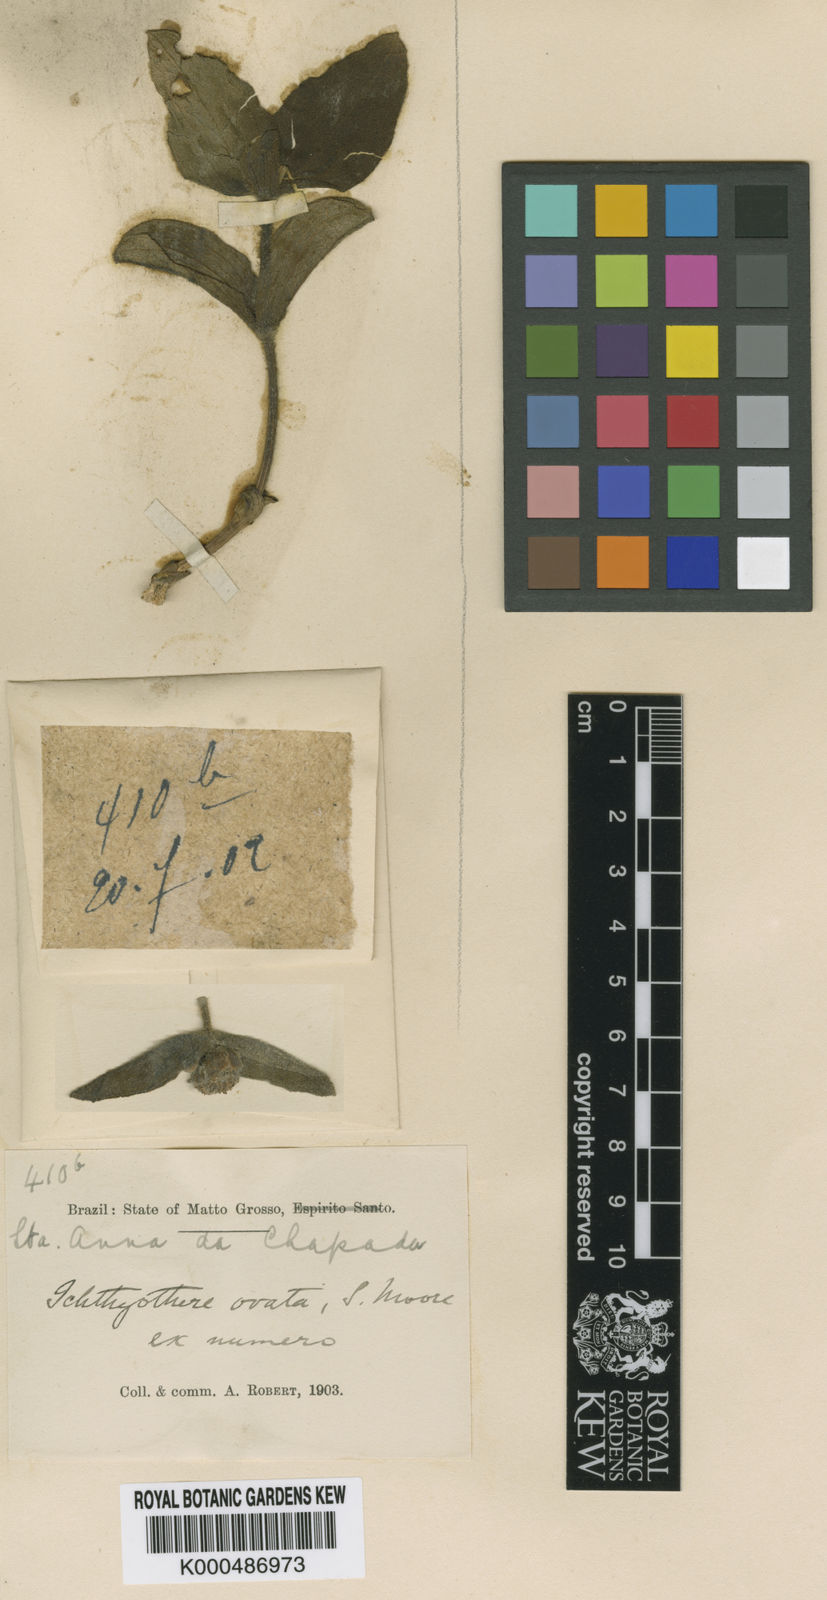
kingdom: Plantae
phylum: Tracheophyta
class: Magnoliopsida
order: Asterales
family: Asteraceae
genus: Ichthyothere
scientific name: Ichthyothere integrifolia
